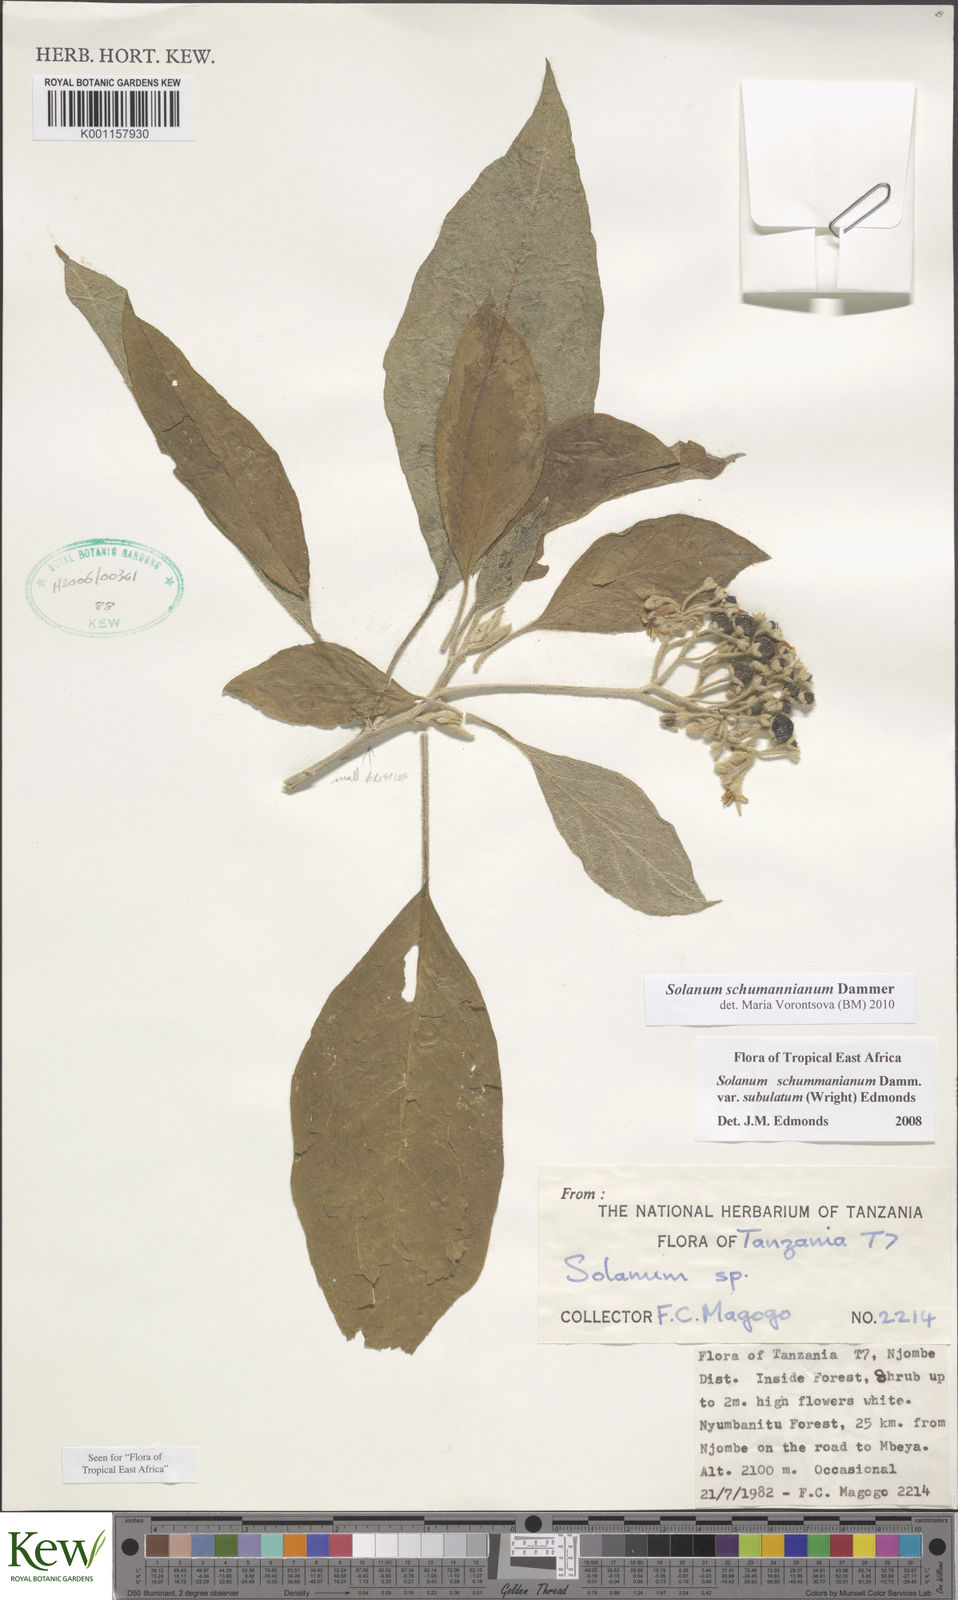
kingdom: Plantae
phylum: Tracheophyta
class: Magnoliopsida
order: Solanales
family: Solanaceae
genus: Solanum
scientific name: Solanum schumannianum
